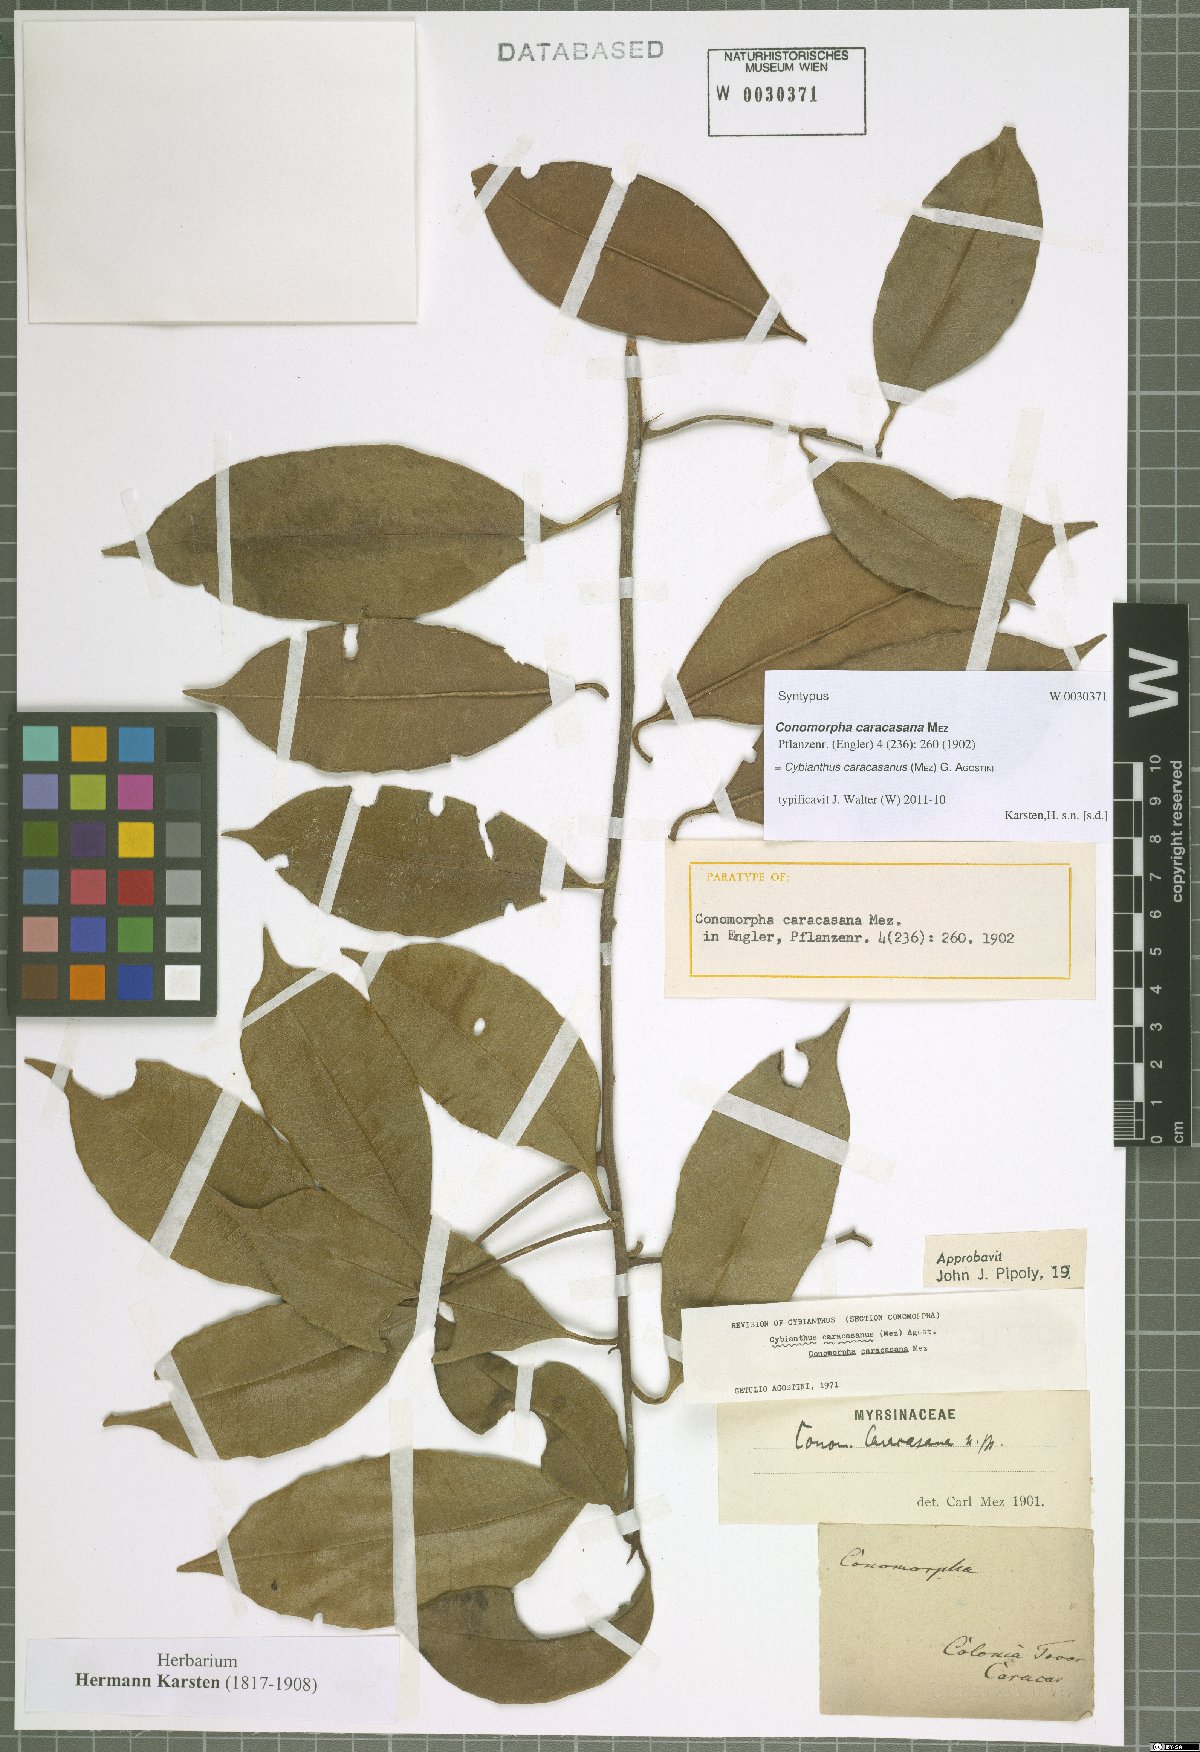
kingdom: Plantae
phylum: Tracheophyta
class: Magnoliopsida
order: Ericales
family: Primulaceae
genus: Cybianthus
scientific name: Cybianthus caracasanus
